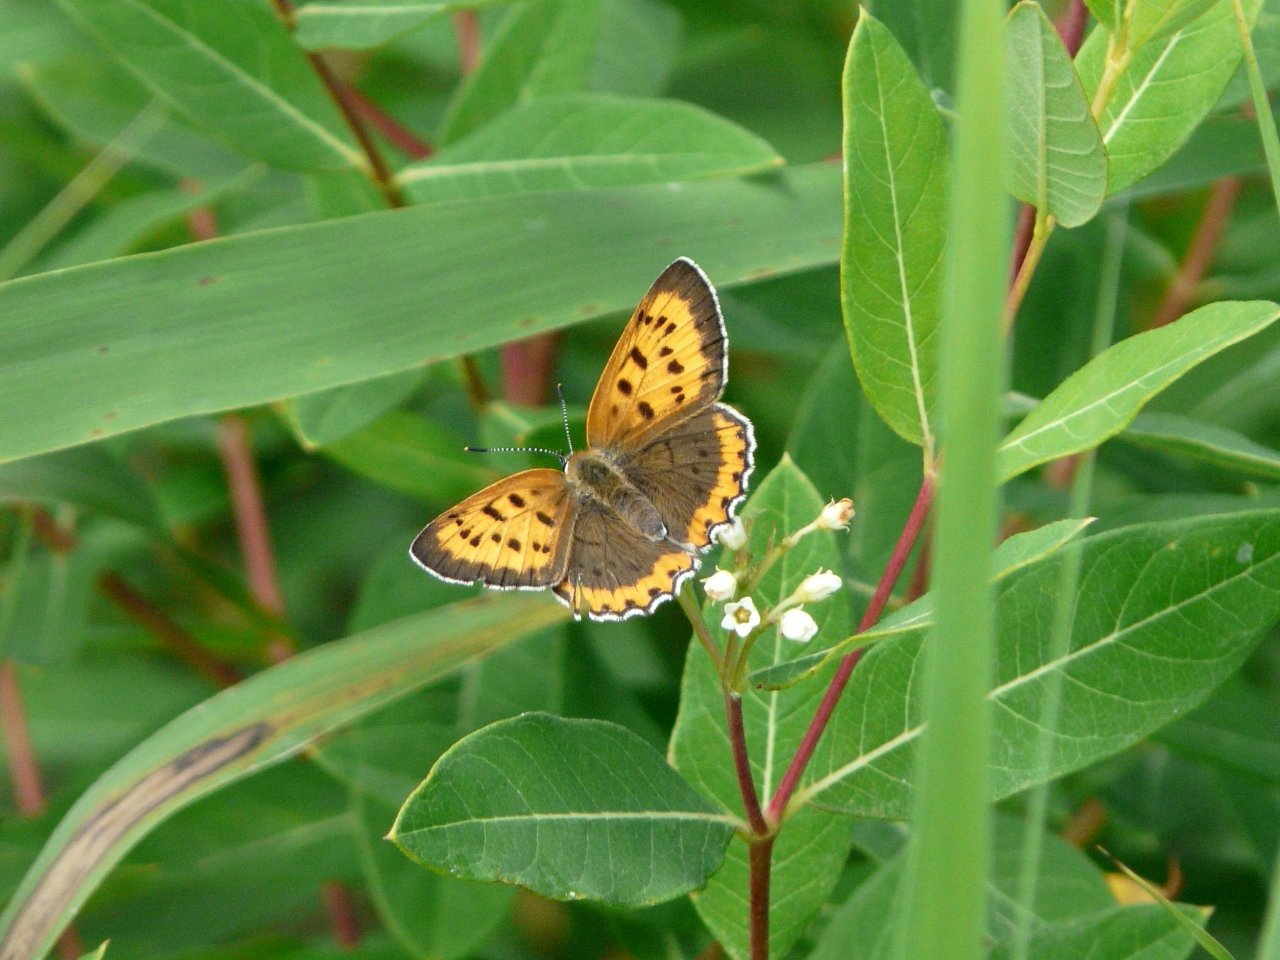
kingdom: Animalia
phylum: Arthropoda
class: Insecta
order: Lepidoptera
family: Sesiidae
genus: Sesia
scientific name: Sesia Lycaena hyllus
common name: Bronze Copper
